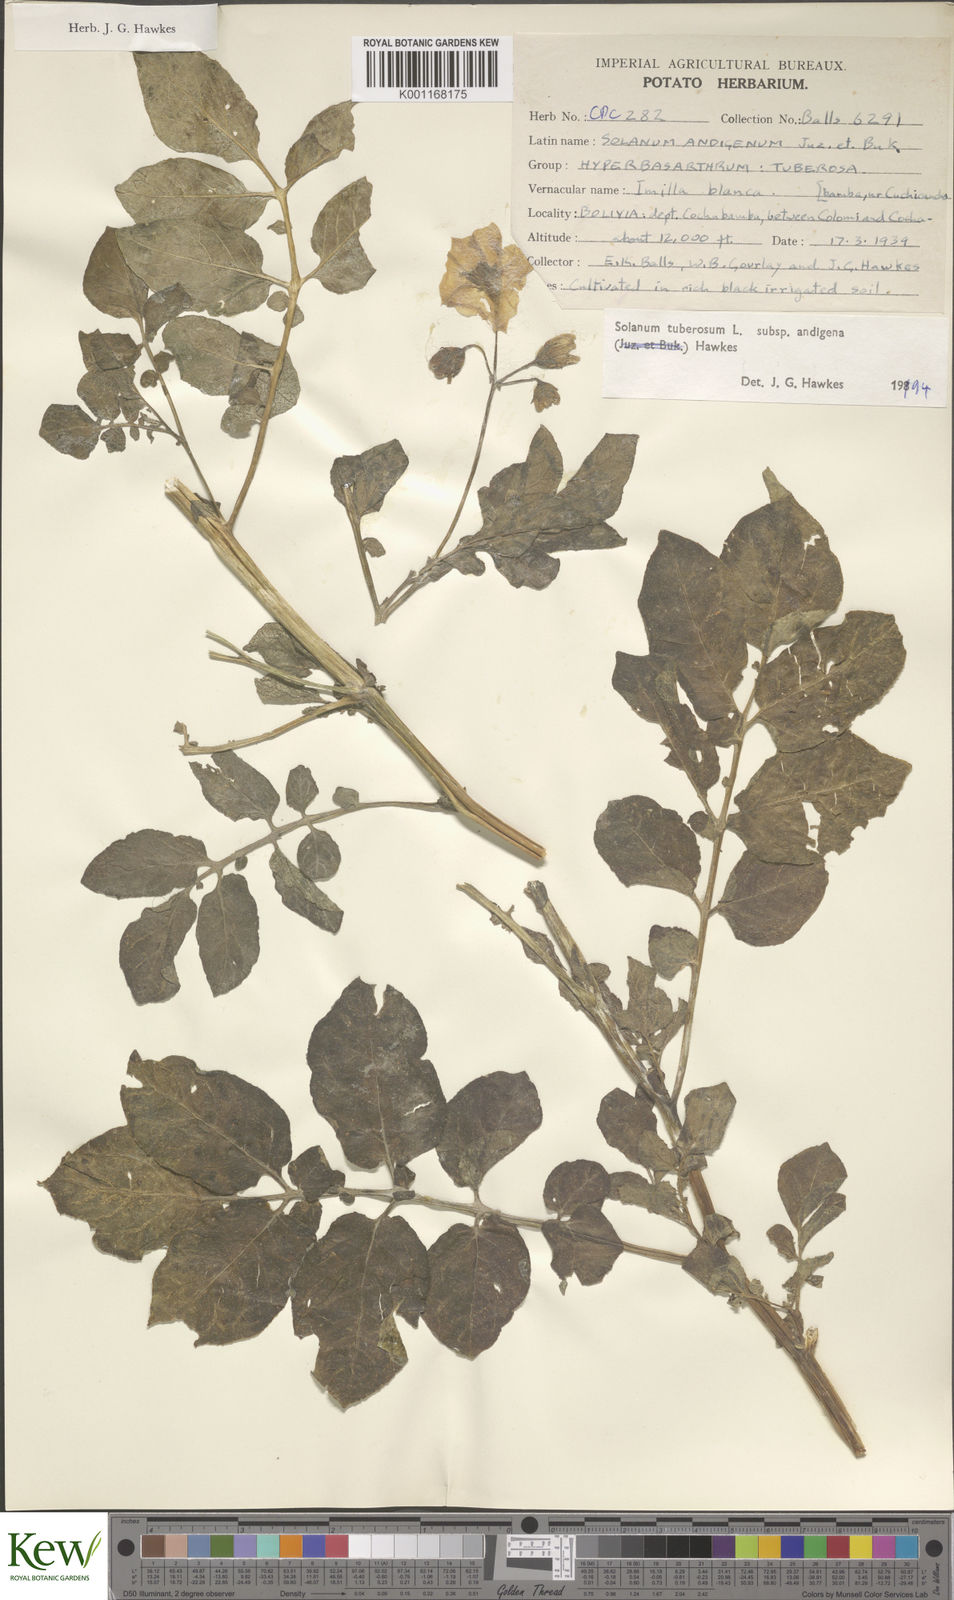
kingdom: Plantae
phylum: Tracheophyta
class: Magnoliopsida
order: Solanales
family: Solanaceae
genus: Solanum
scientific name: Solanum tuberosum
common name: Potato
